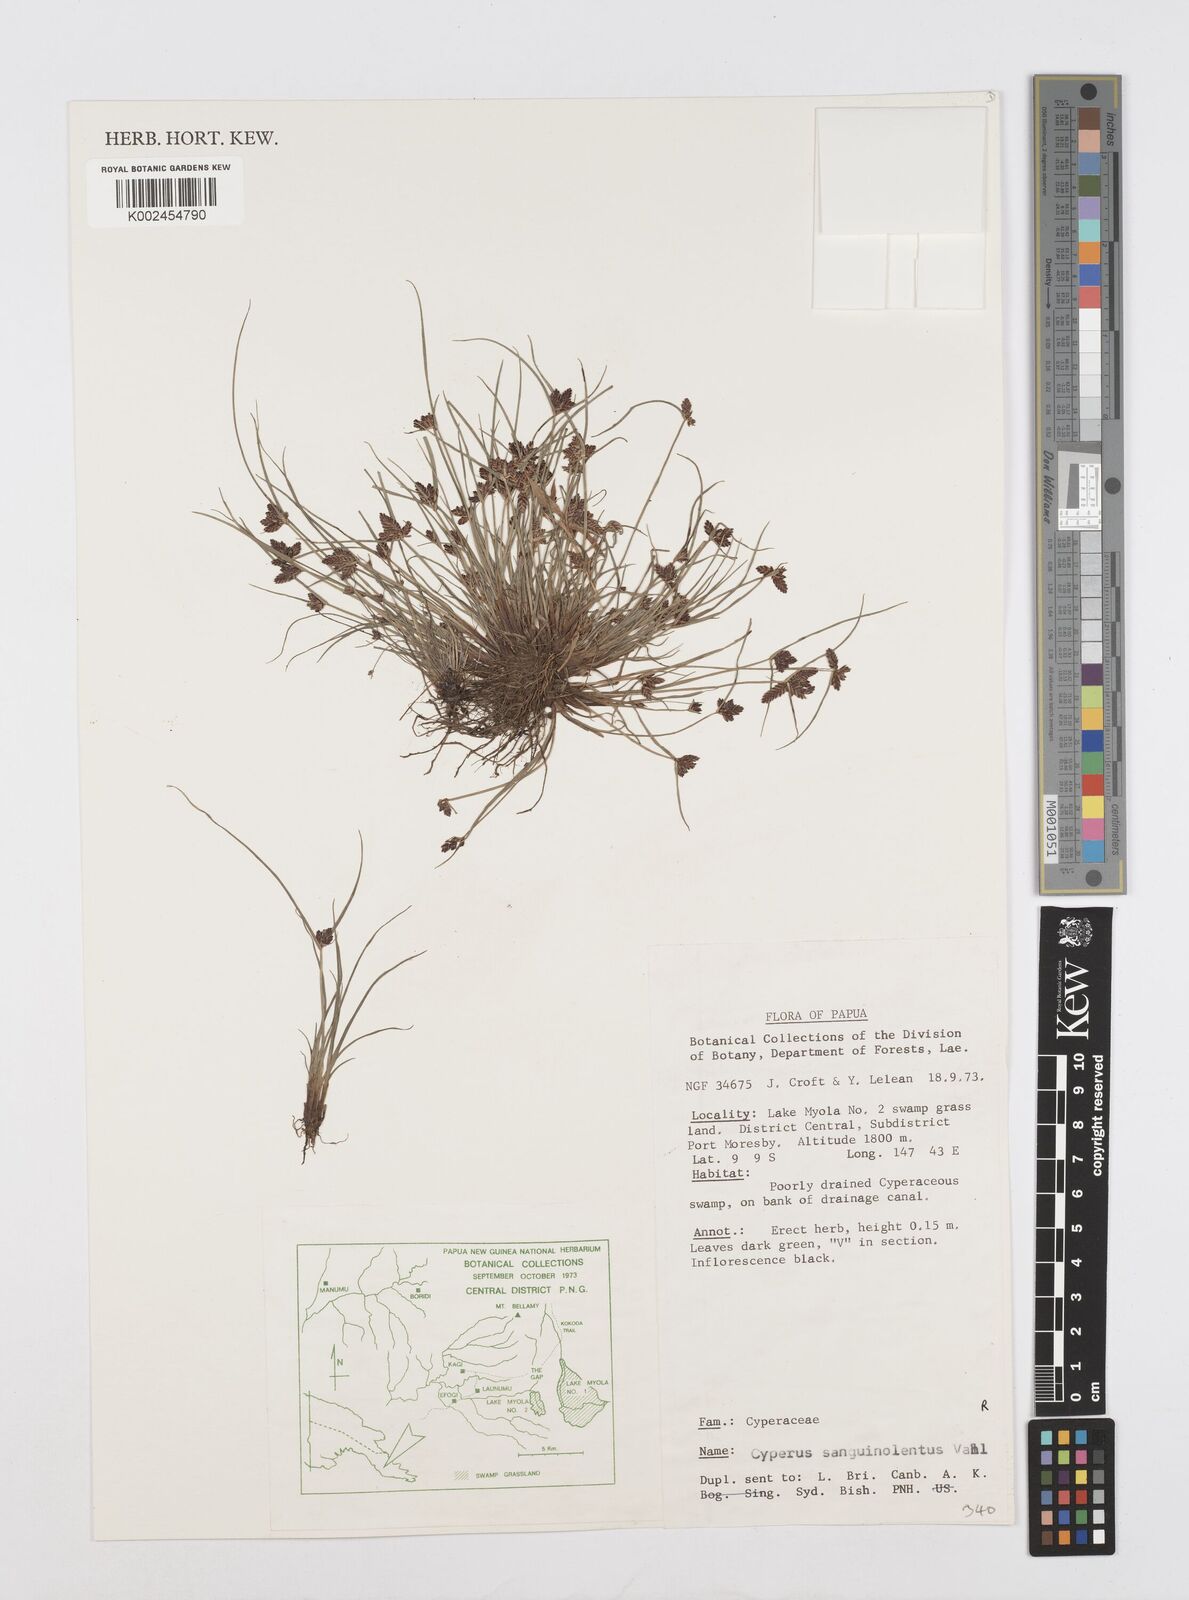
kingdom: Plantae
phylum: Tracheophyta
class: Liliopsida
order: Poales
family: Cyperaceae
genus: Cyperus
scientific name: Cyperus sanguinolentus
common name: Purpleglume flatsedge
